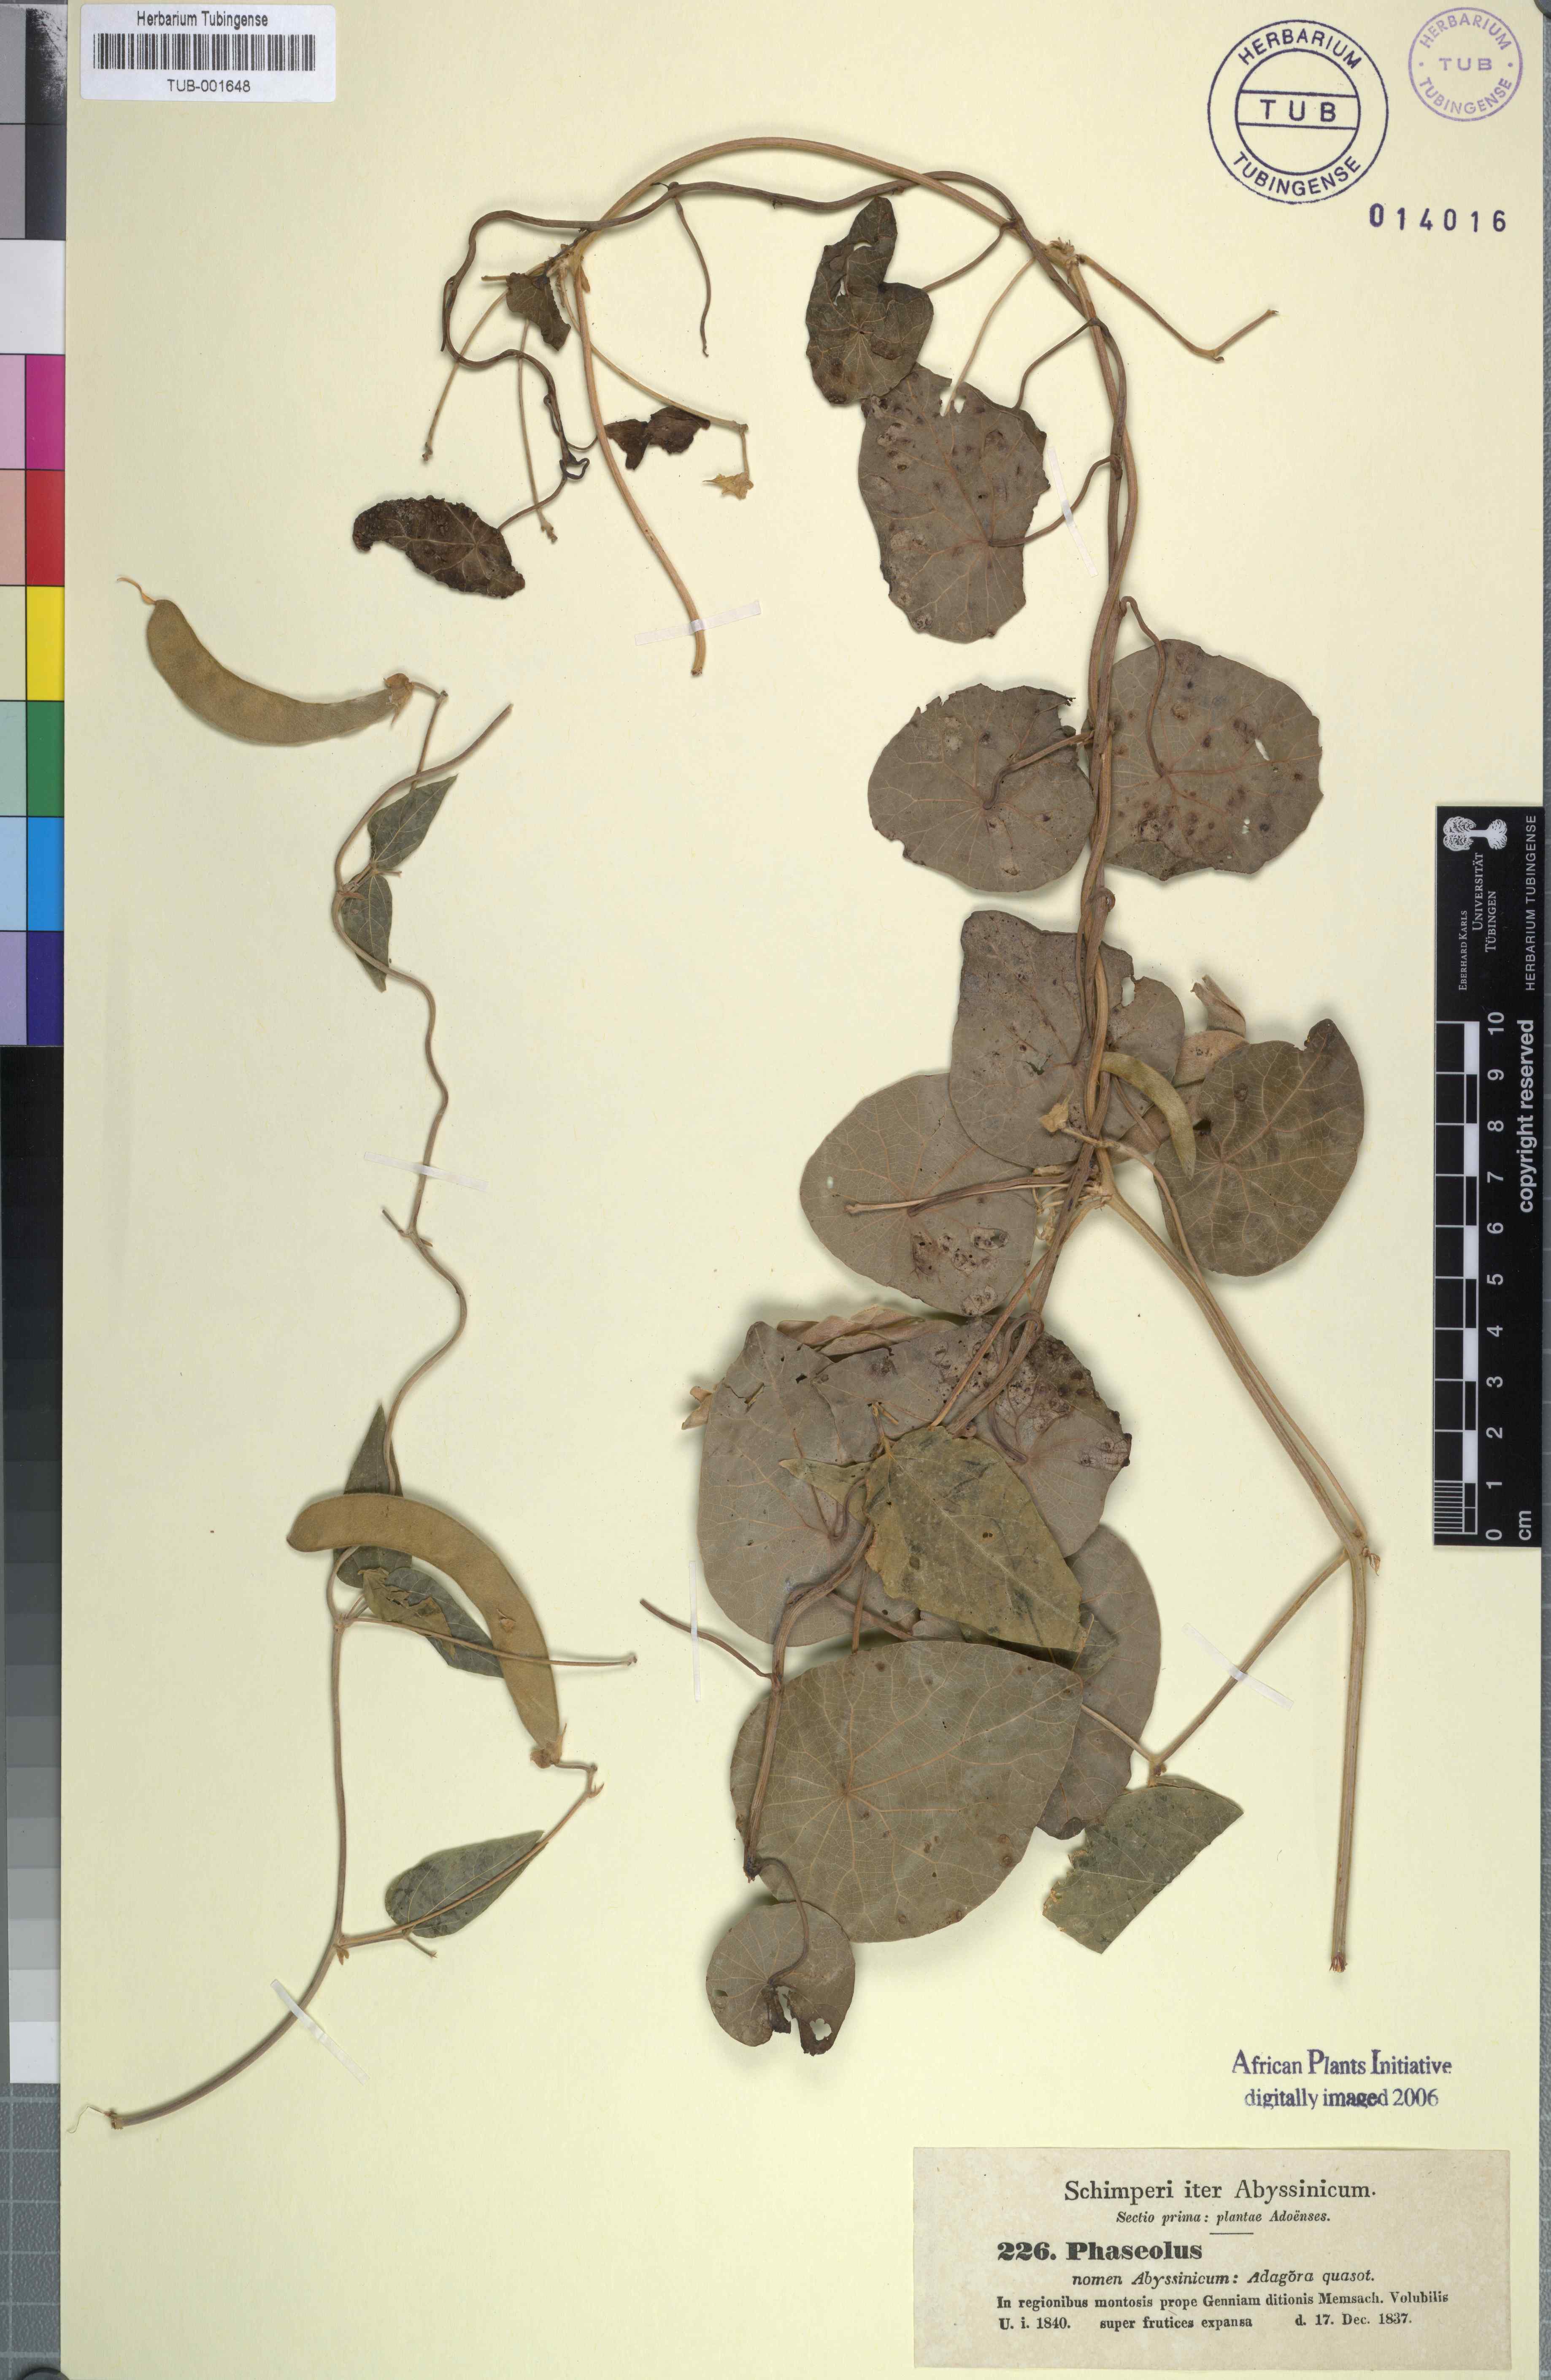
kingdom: Plantae
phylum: Tracheophyta
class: Magnoliopsida
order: Fabales
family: Fabaceae
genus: Phaseolus
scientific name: Phaseolus
